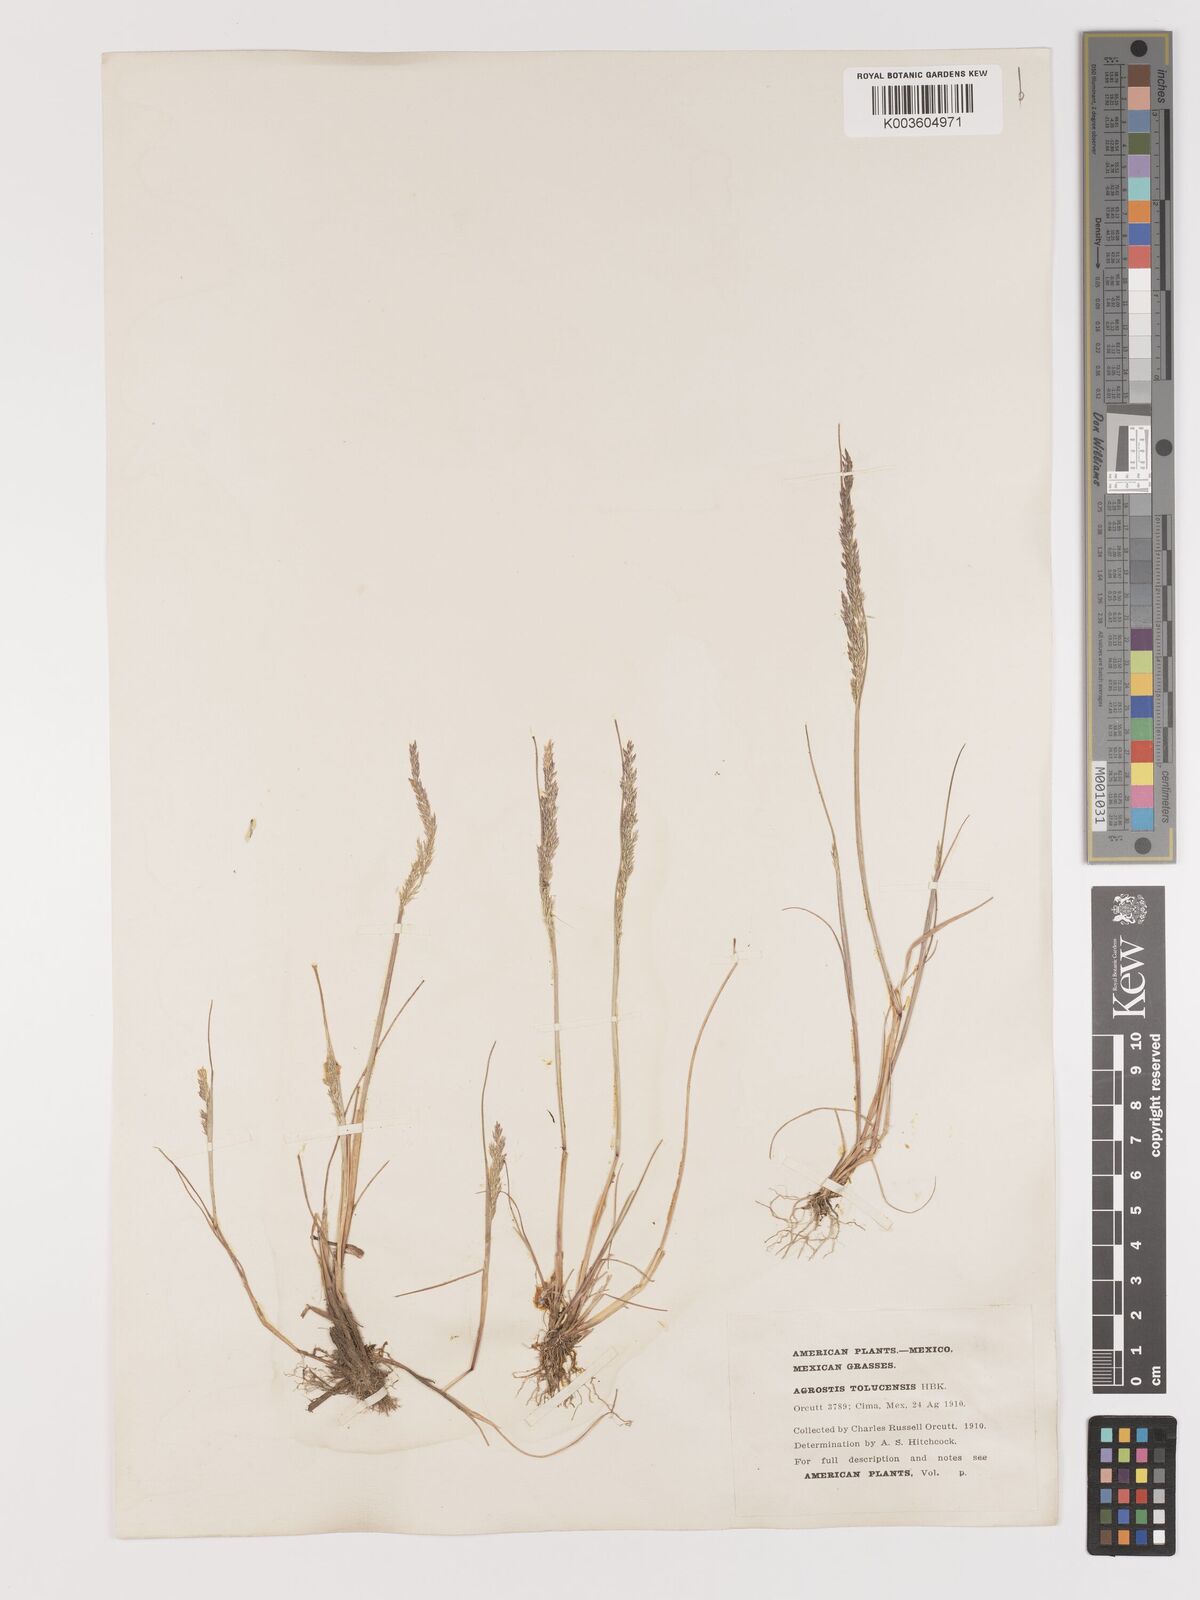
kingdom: Plantae
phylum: Tracheophyta
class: Liliopsida
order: Poales
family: Poaceae
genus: Agrostis
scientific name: Agrostis tolucensis
